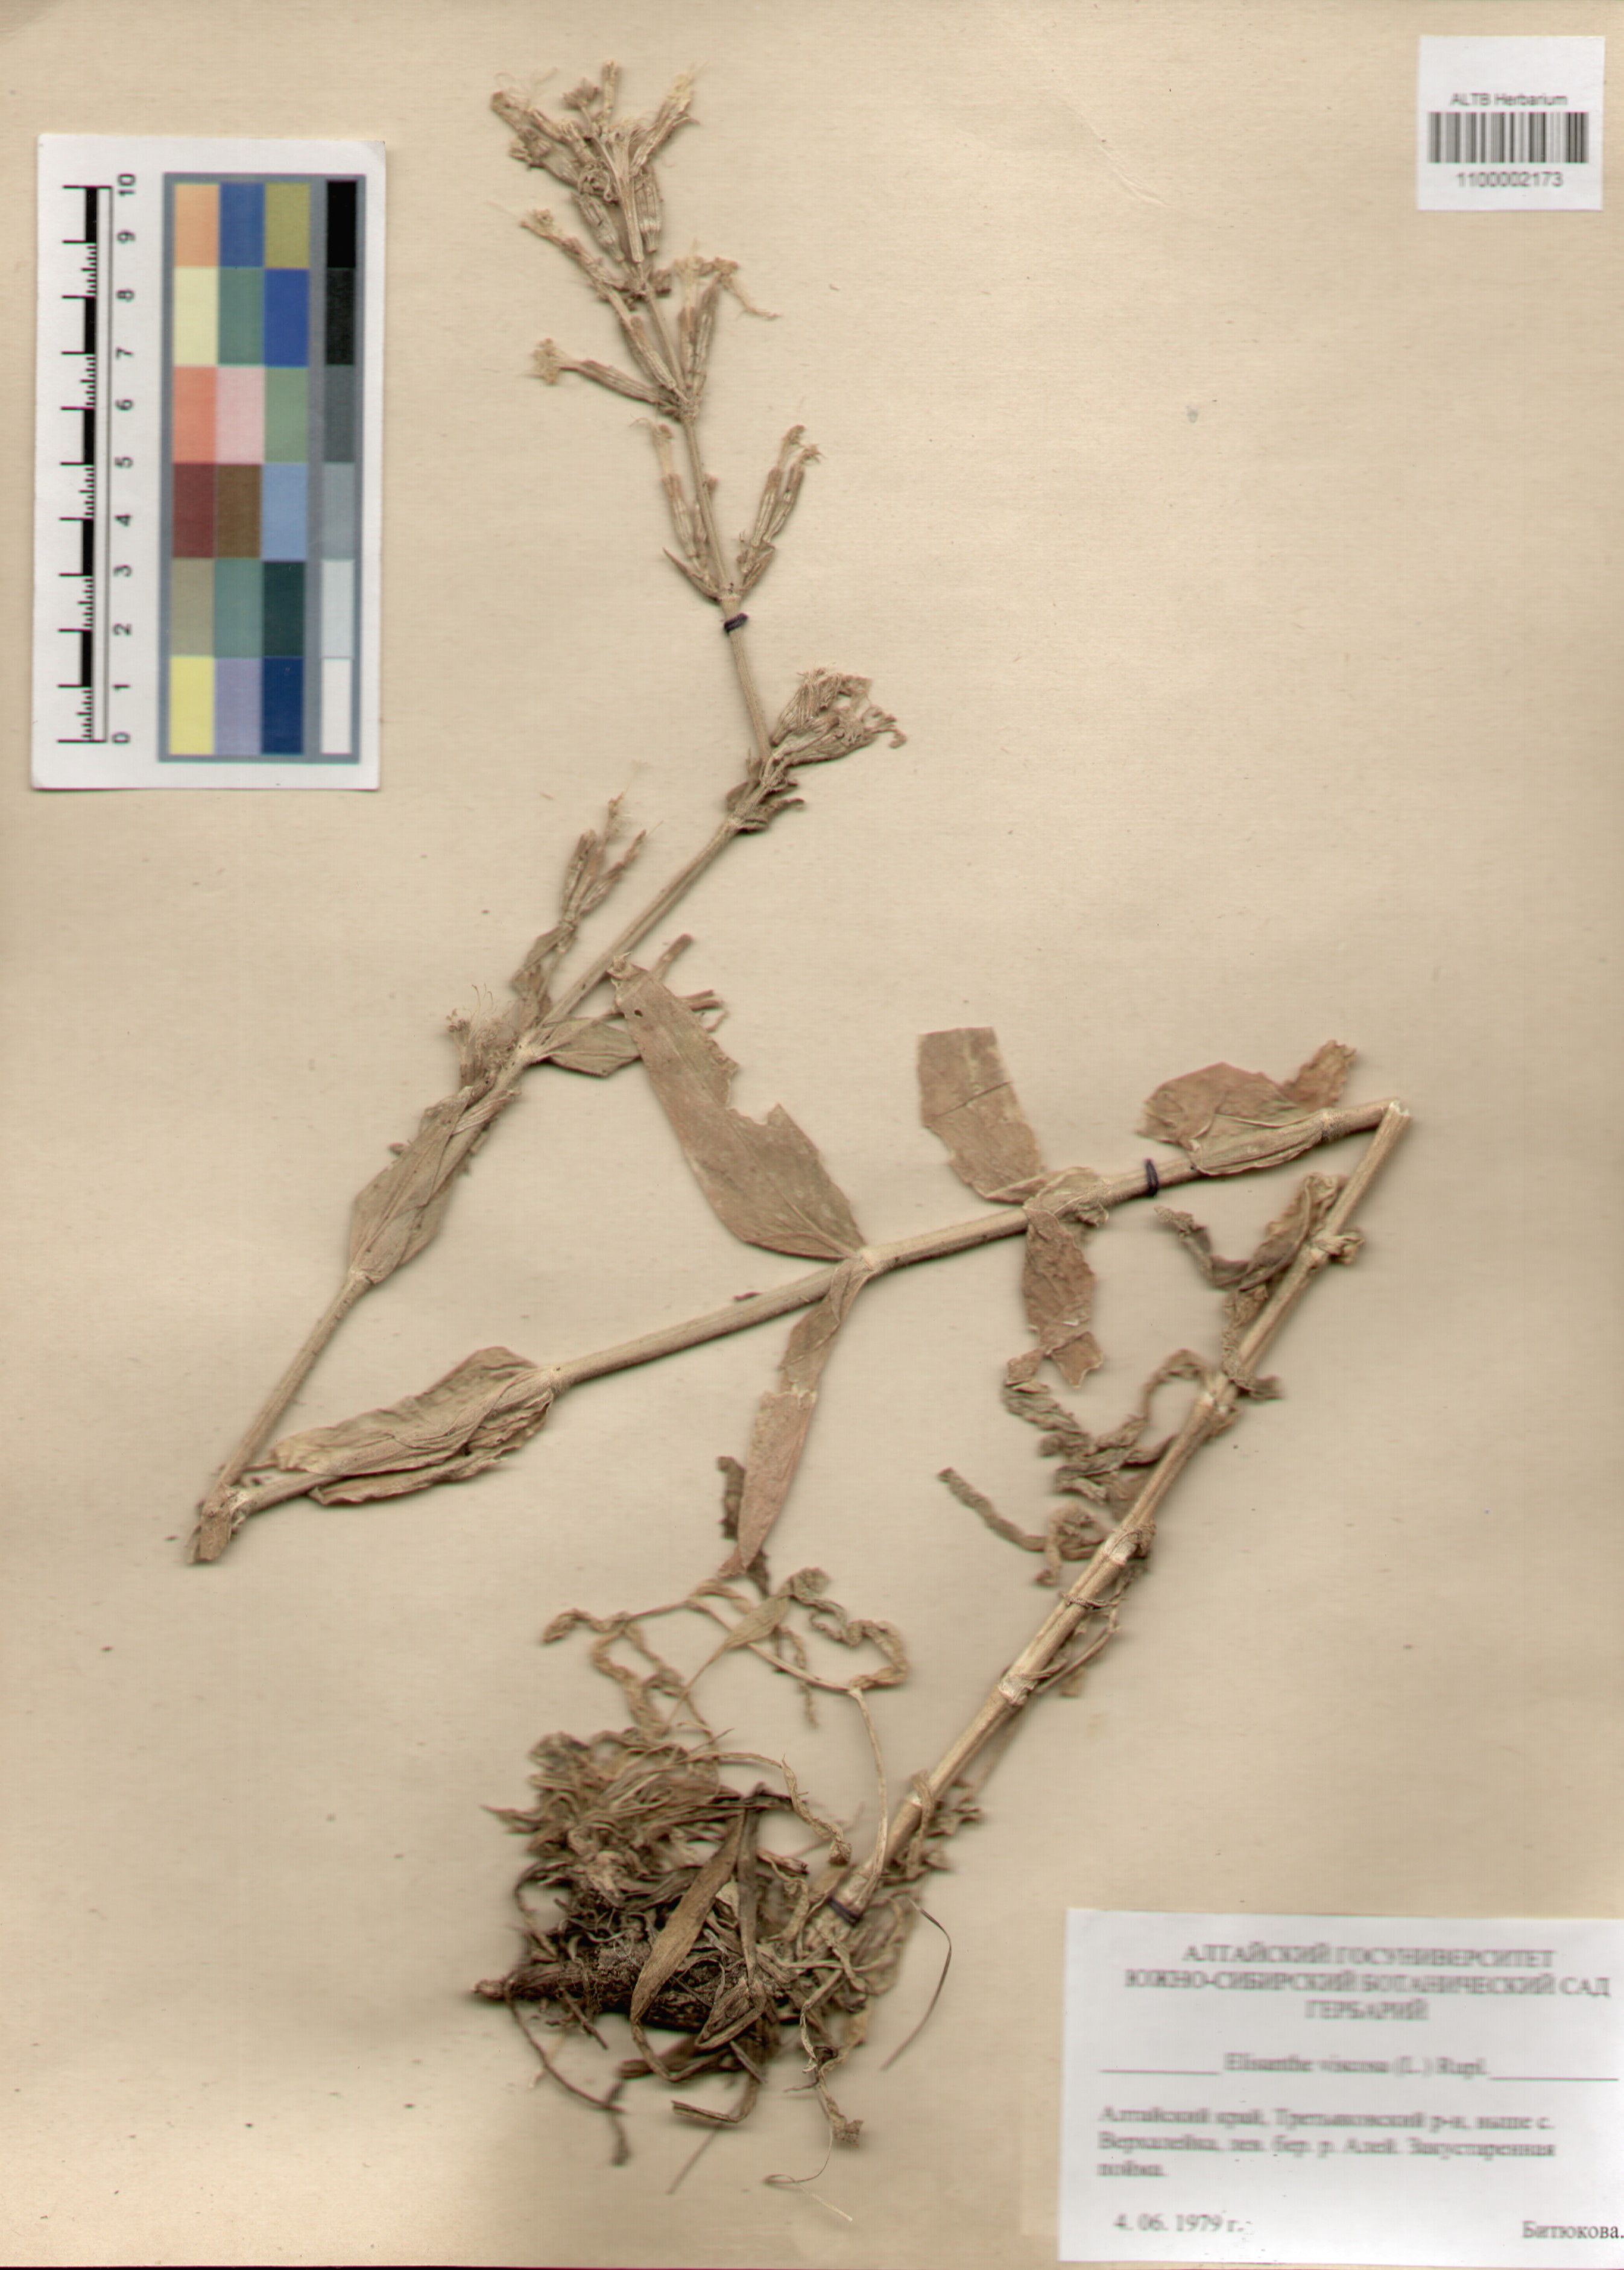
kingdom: Plantae
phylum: Tracheophyta
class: Magnoliopsida
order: Caryophyllales
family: Caryophyllaceae
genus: Silene
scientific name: Silene viscosa
